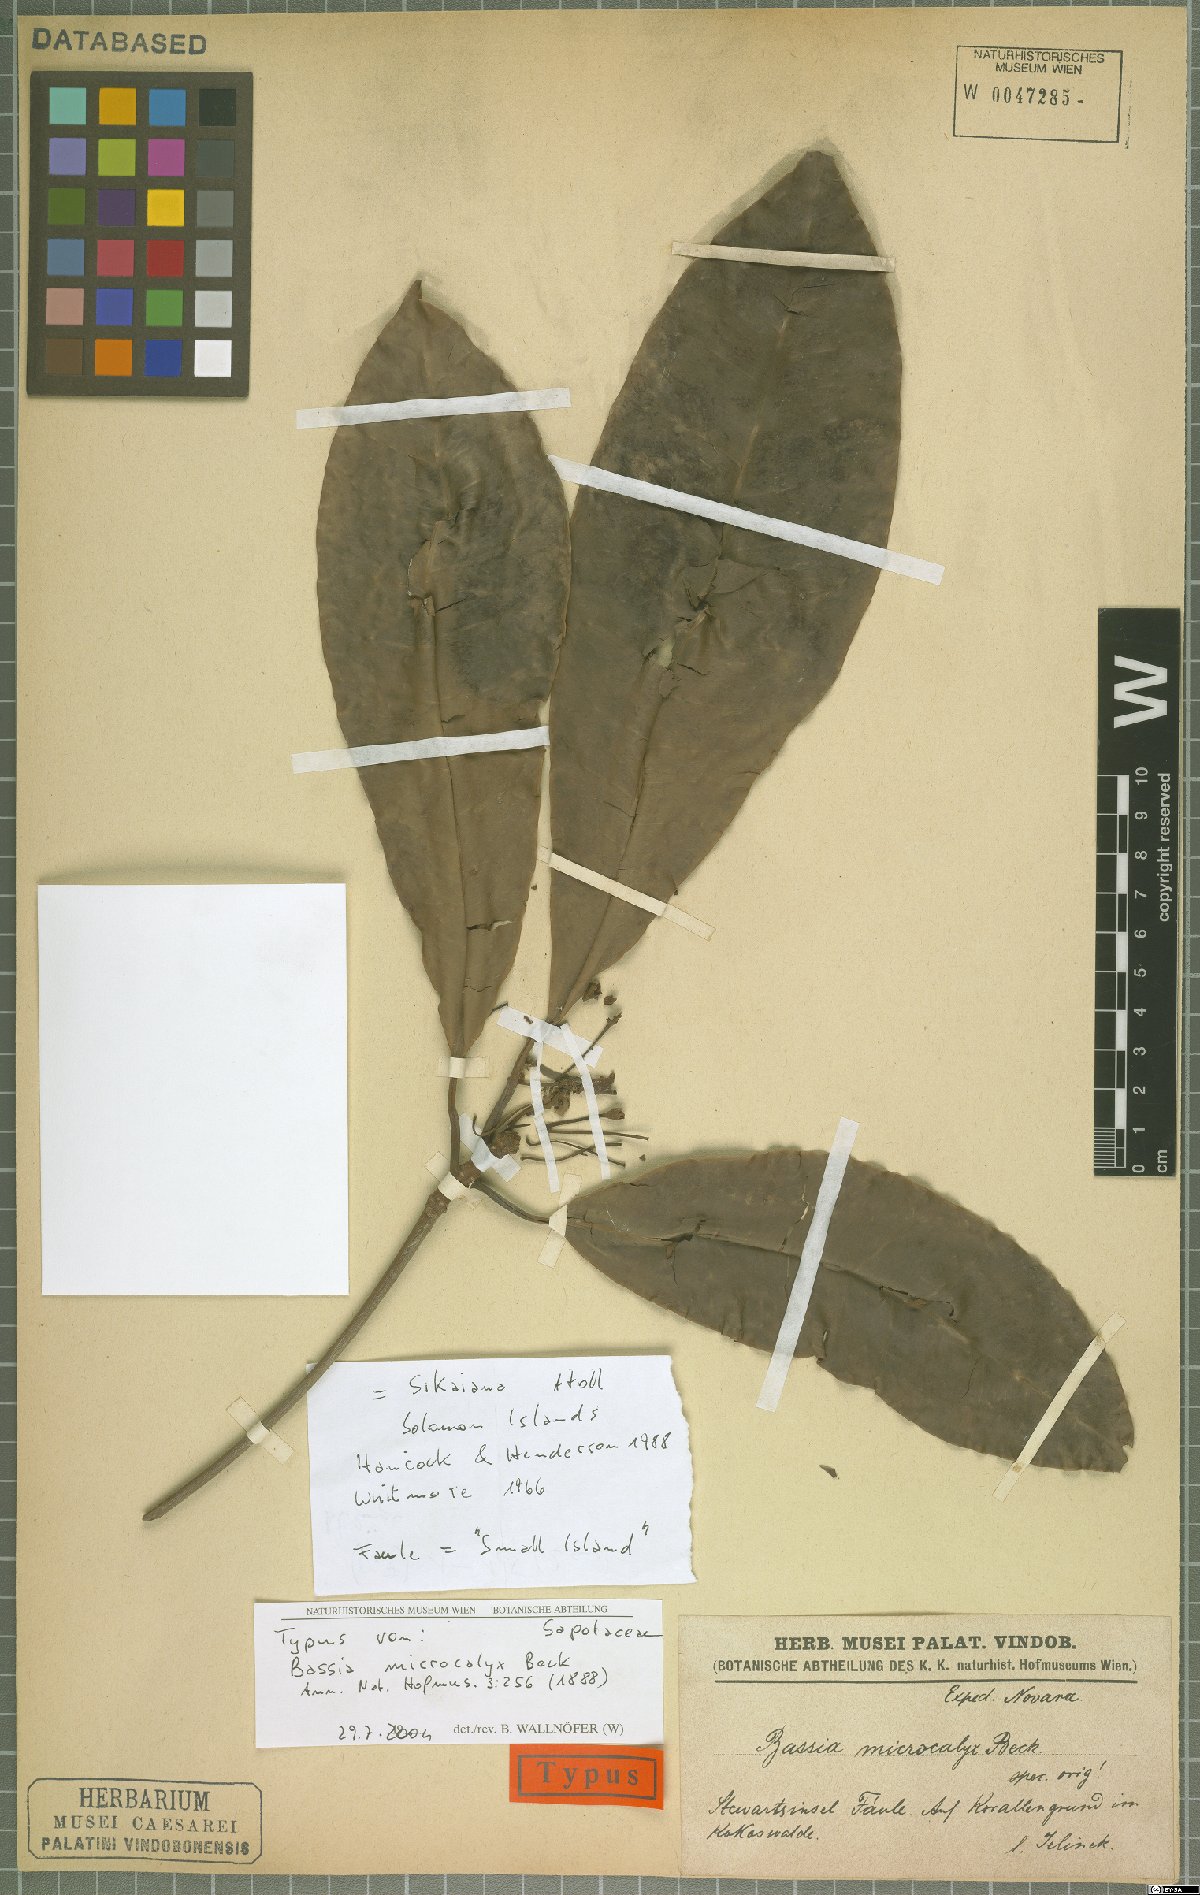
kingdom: Plantae
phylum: Tracheophyta
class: Magnoliopsida
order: Ericales
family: Sapotaceae
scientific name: Sapotaceae
